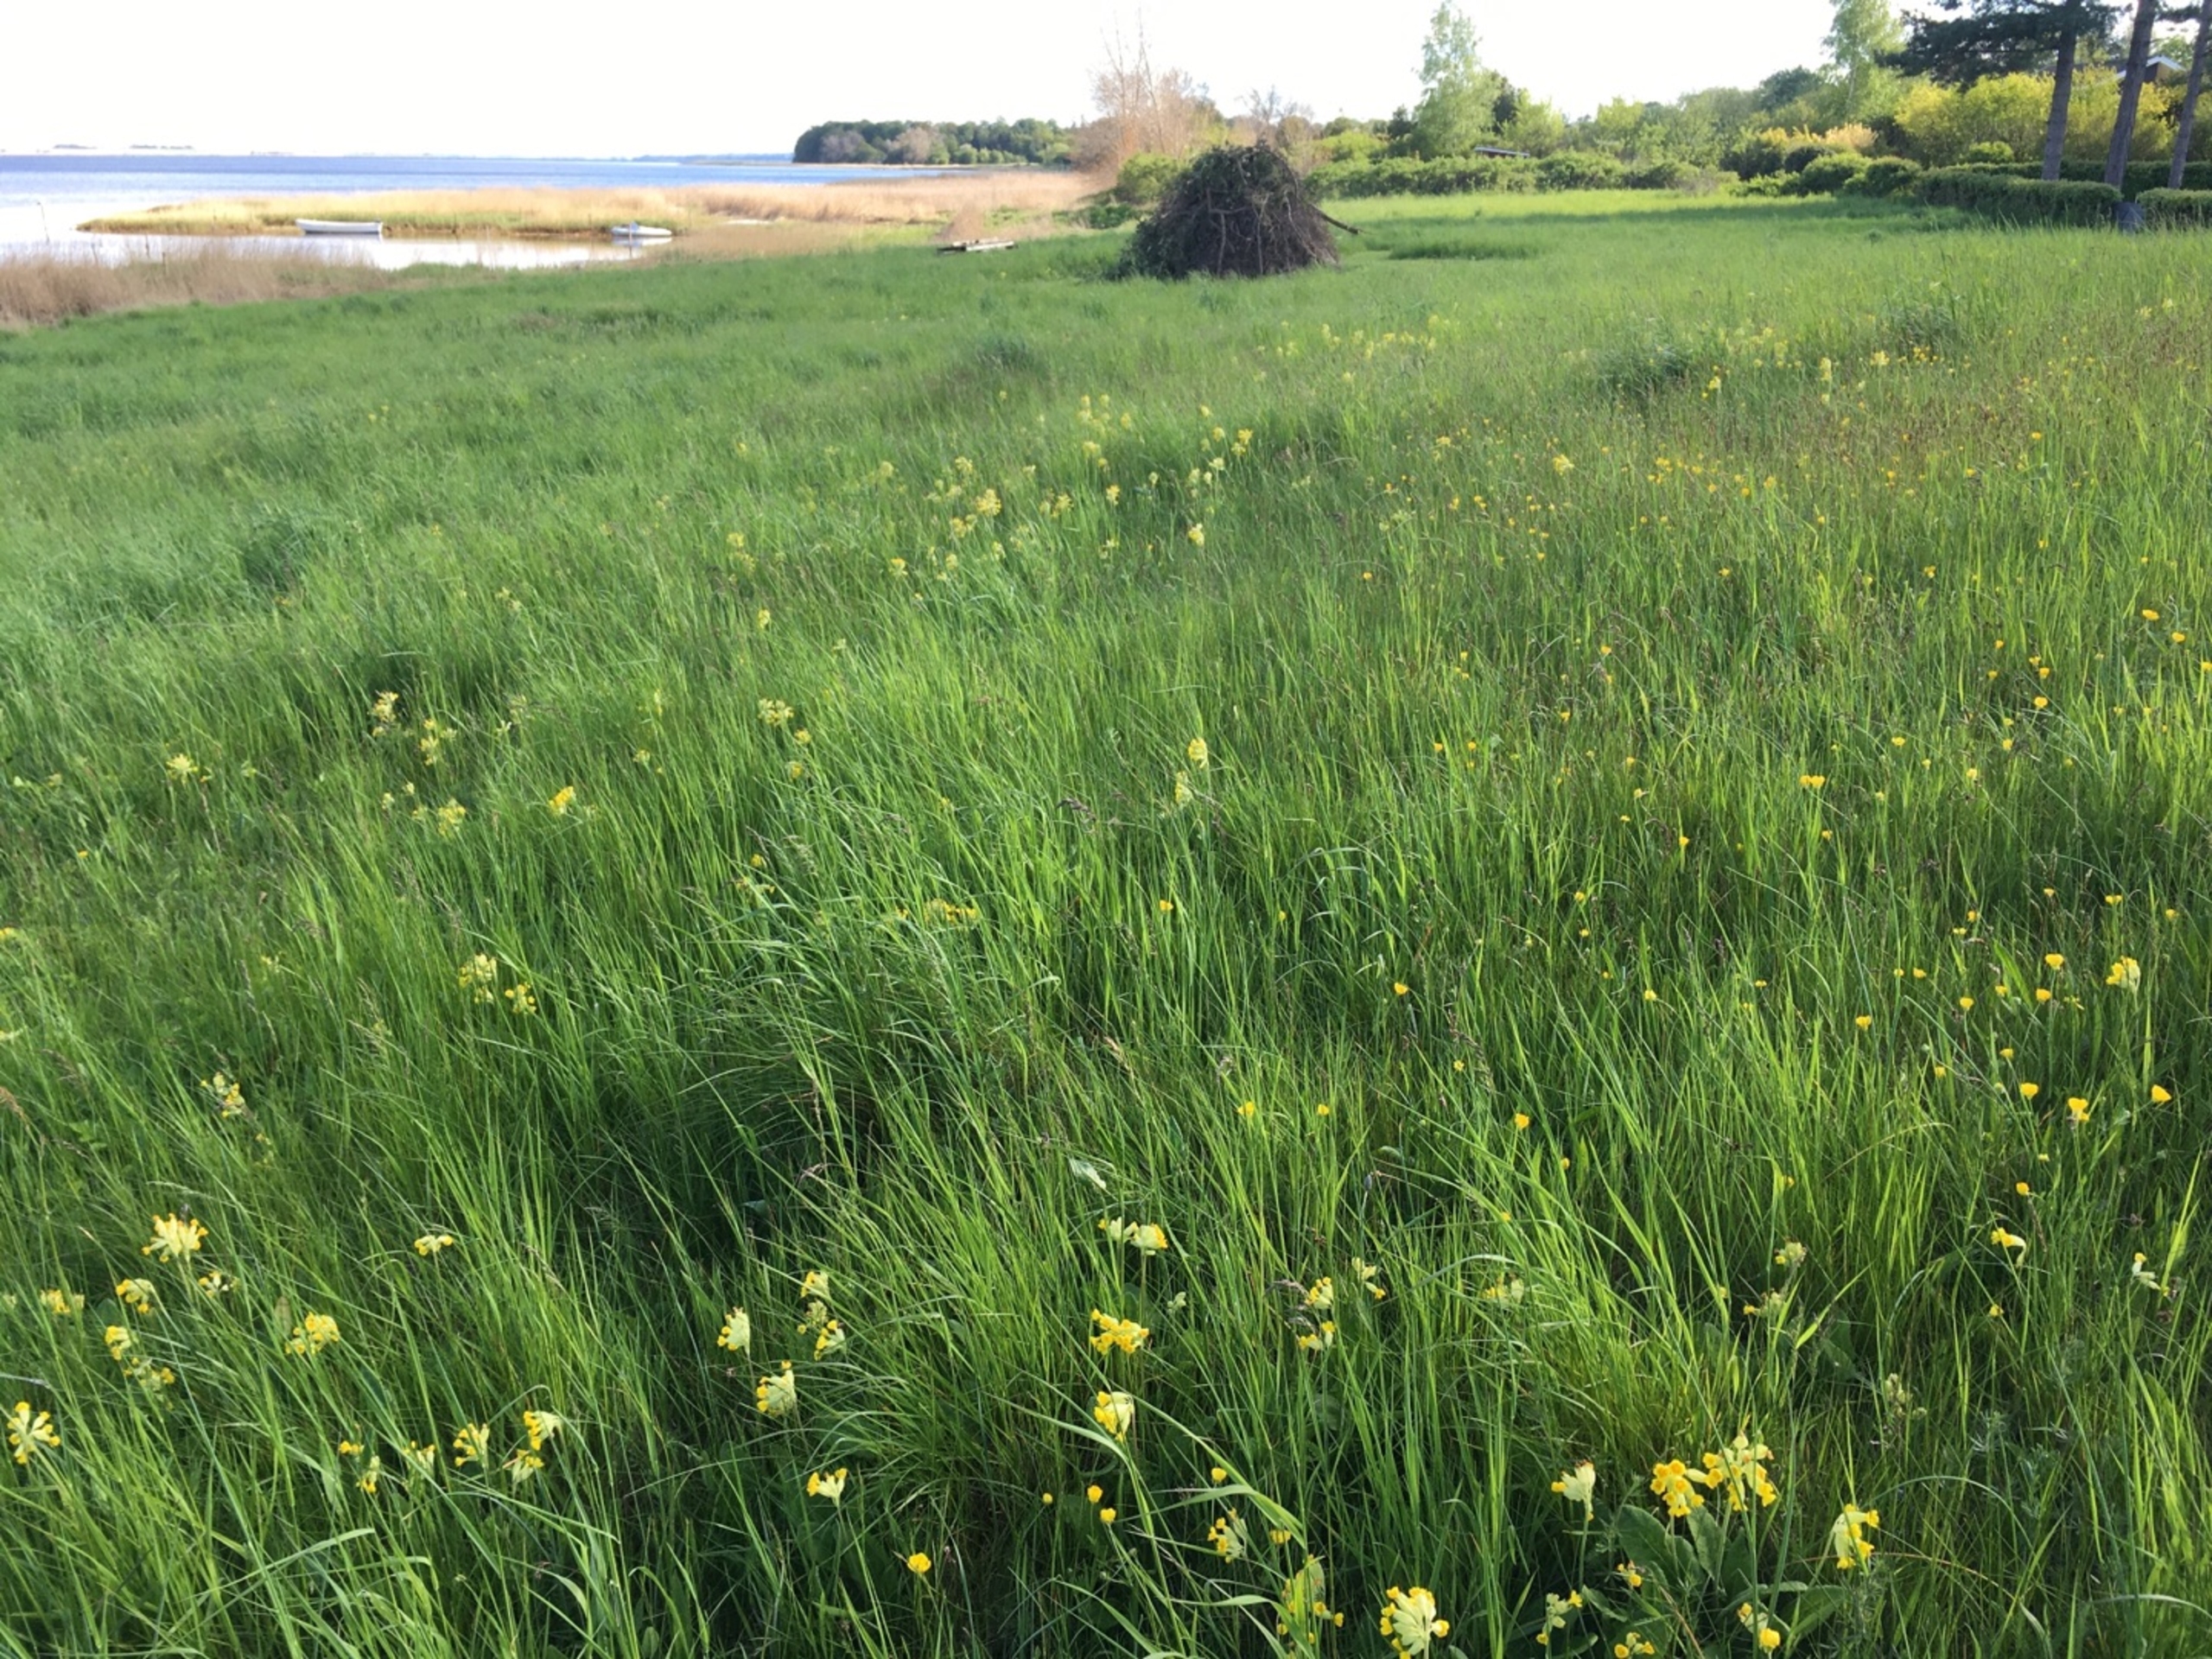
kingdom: Plantae
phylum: Tracheophyta
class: Magnoliopsida
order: Ericales
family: Primulaceae
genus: Primula
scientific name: Primula veris
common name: Hulkravet kodriver
